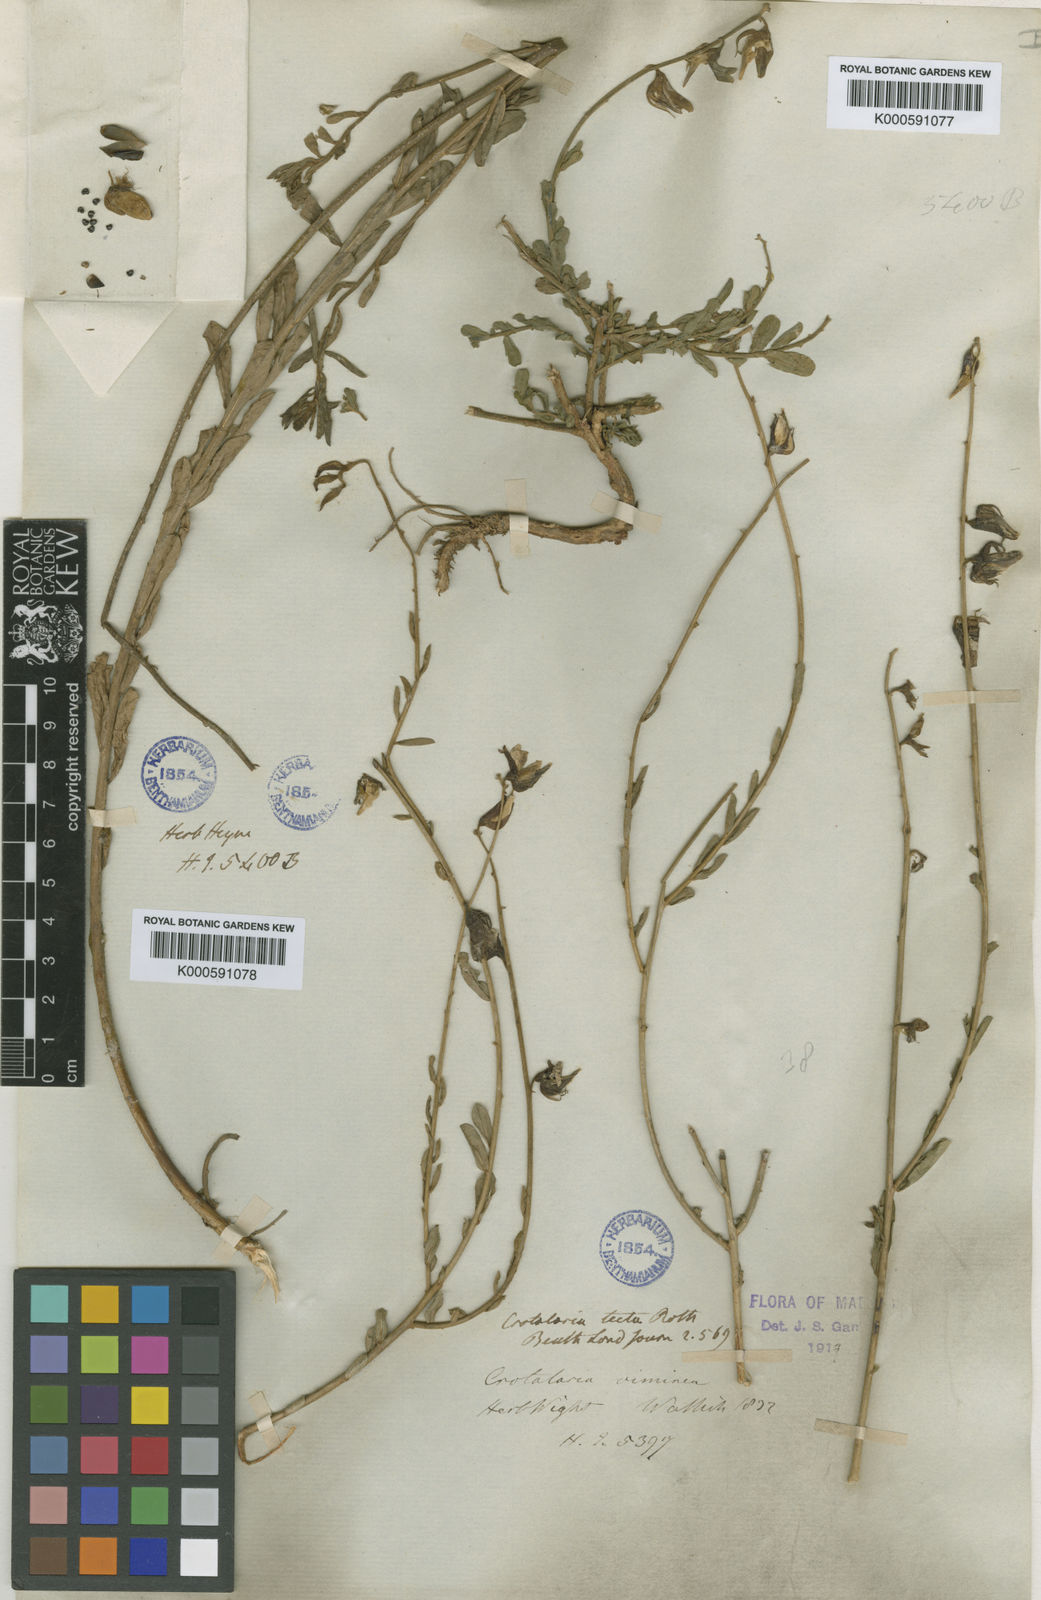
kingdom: Plantae
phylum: Tracheophyta
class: Magnoliopsida
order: Fabales
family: Fabaceae
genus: Crotalaria
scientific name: Crotalaria linifolia
